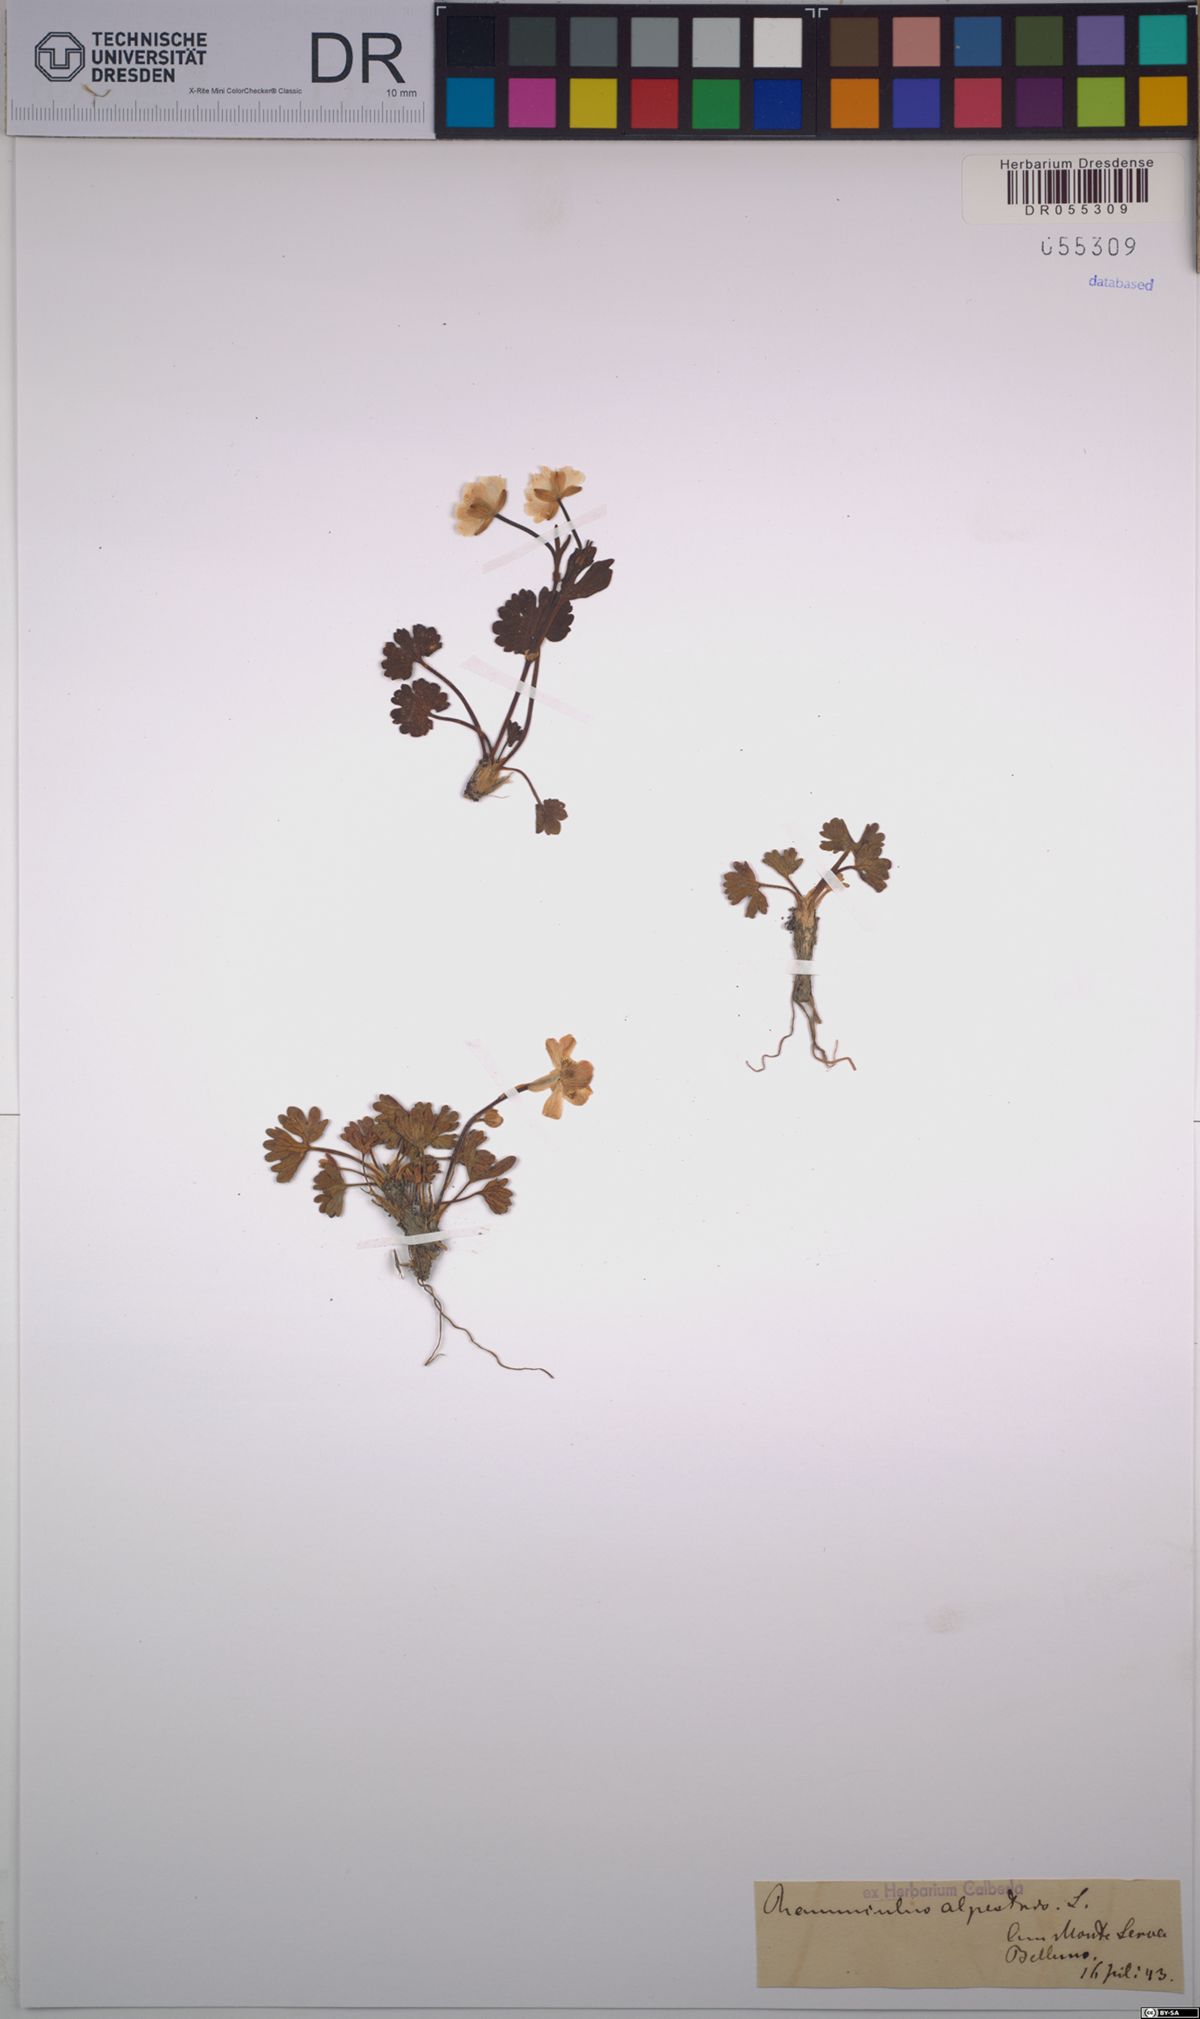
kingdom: Plantae
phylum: Tracheophyta
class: Magnoliopsida
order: Ranunculales
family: Ranunculaceae
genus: Ranunculus
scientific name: Ranunculus alpestris
